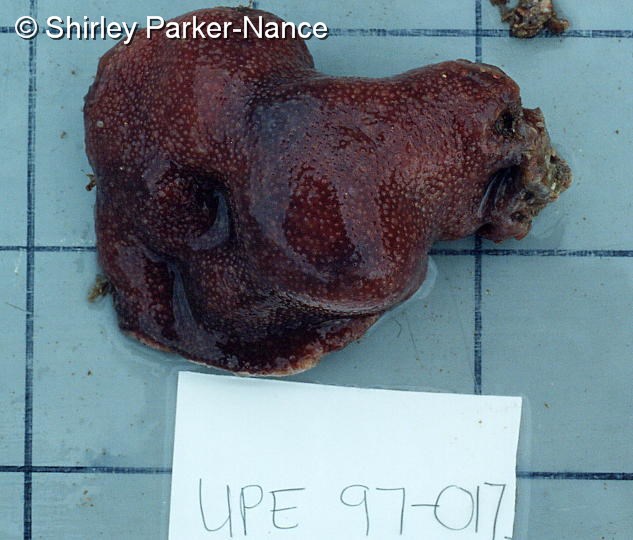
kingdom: Animalia
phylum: Chordata
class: Ascidiacea
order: Aplousobranchia
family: Polycitoridae
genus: Eudistoma
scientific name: Eudistoma
